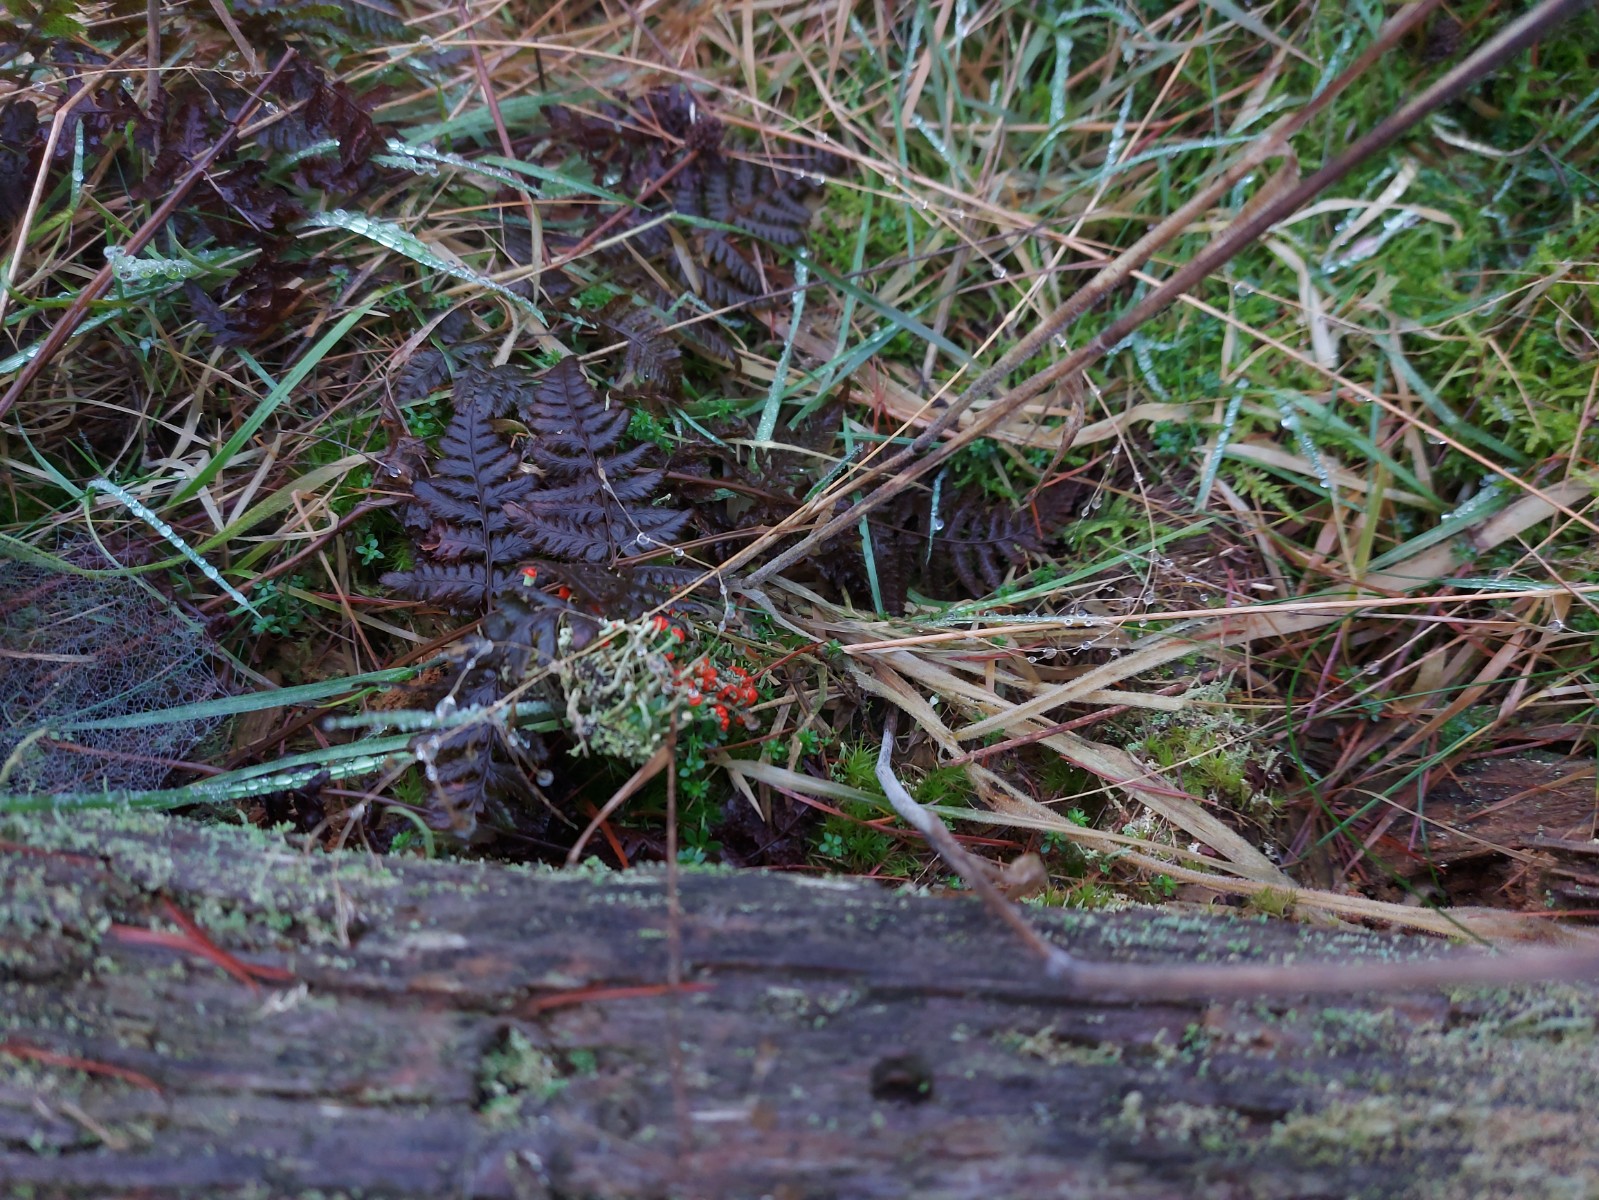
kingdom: Fungi
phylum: Ascomycota
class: Lecanoromycetes
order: Lecanorales
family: Cladoniaceae
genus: Cladonia
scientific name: Cladonia floerkeana
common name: lakrød bægerlav
